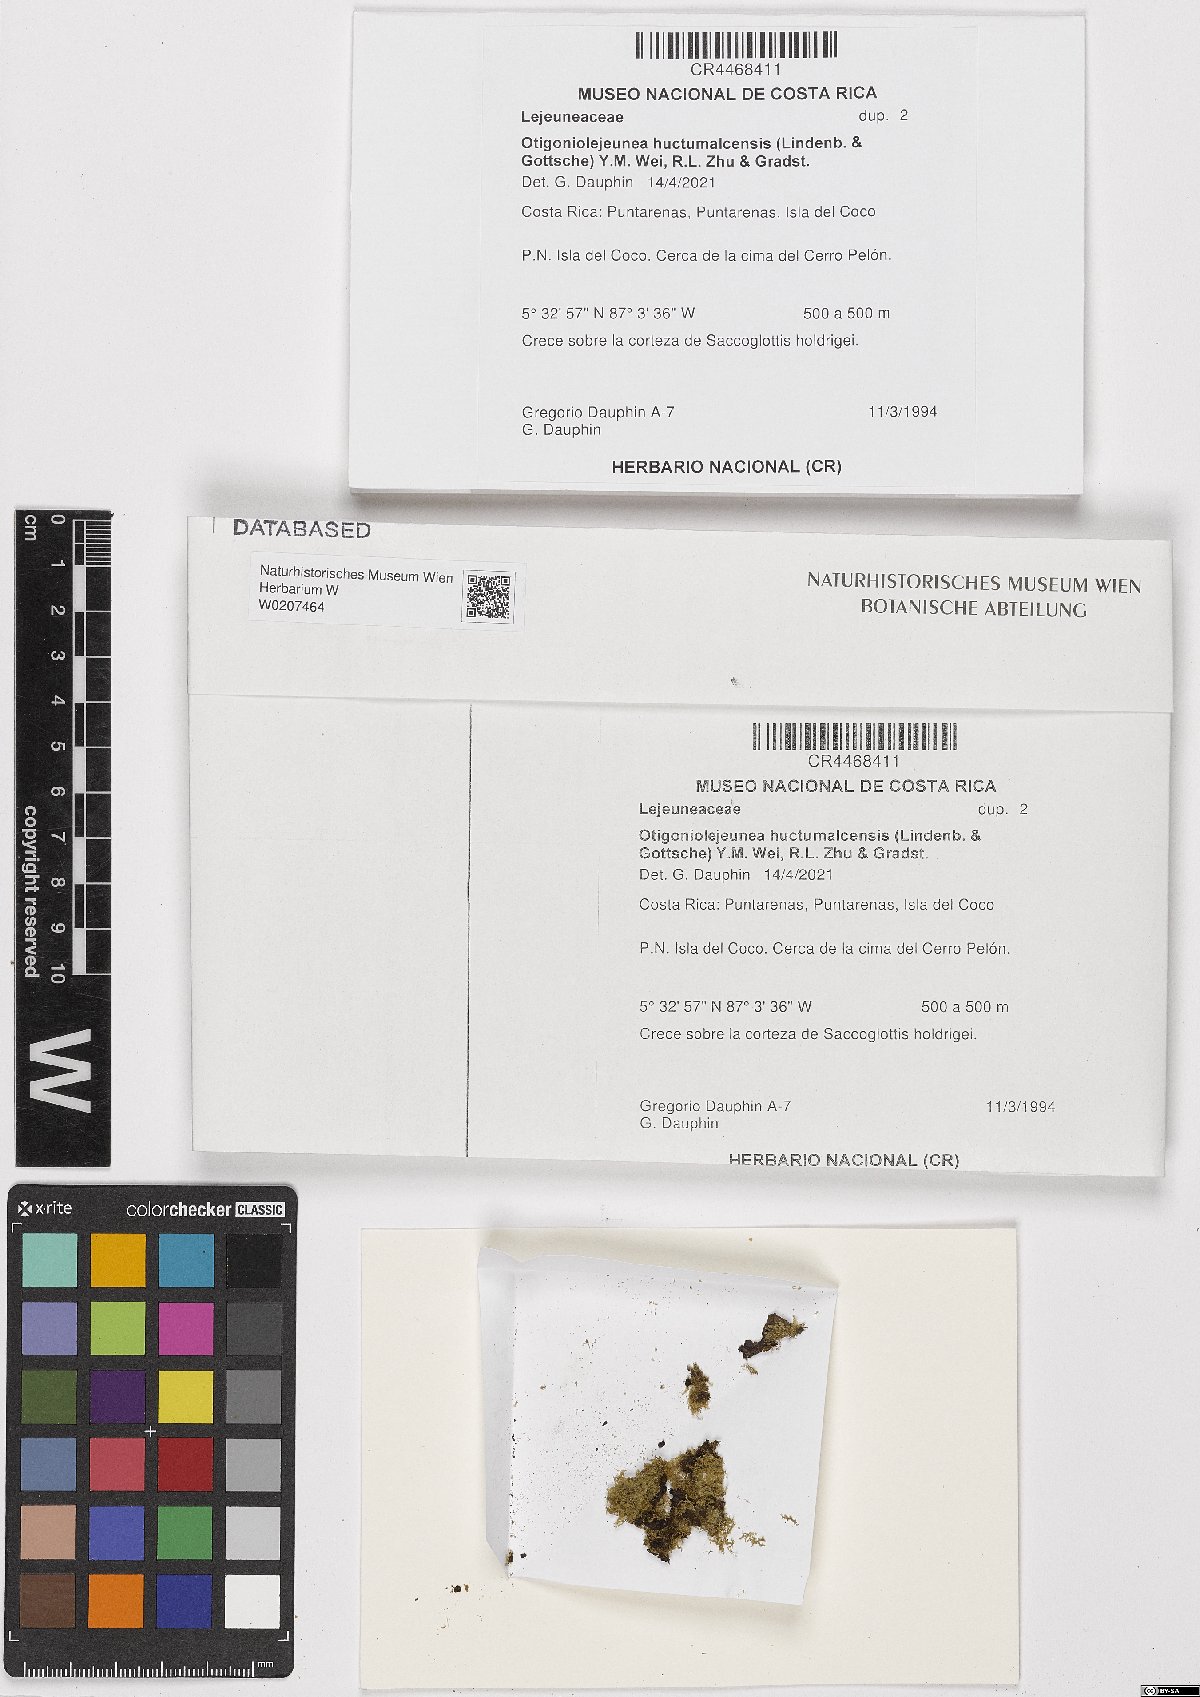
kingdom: Plantae
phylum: Marchantiophyta
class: Jungermanniopsida
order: Porellales
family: Lejeuneaceae
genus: Otigoniolejeunea
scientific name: Otigoniolejeunea huctumalcensis
